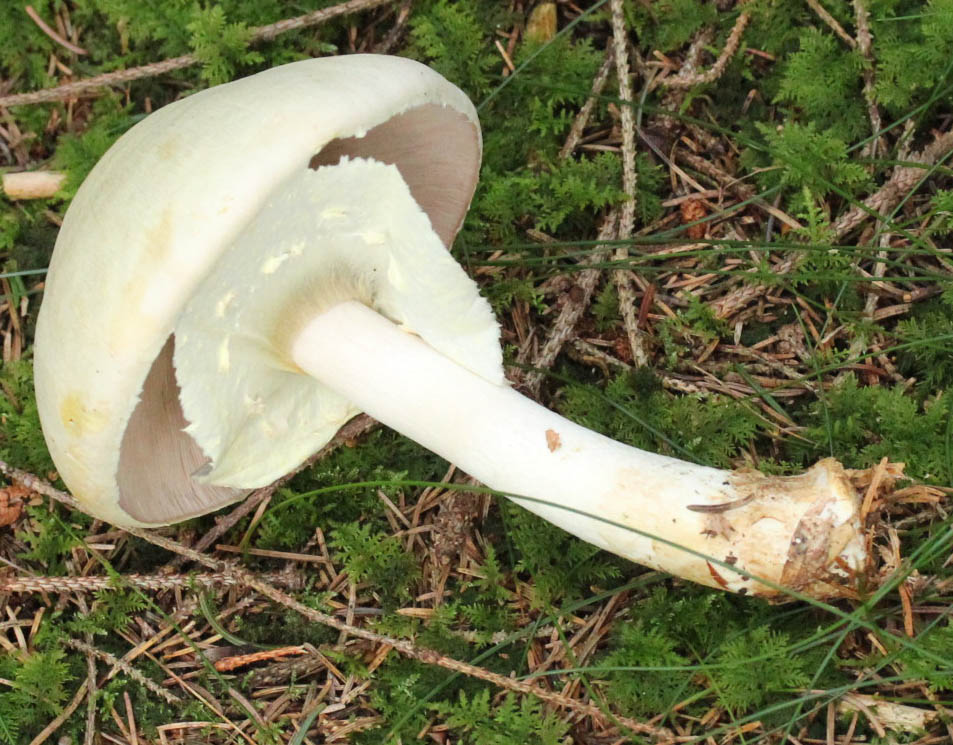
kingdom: Fungi
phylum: Basidiomycota
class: Agaricomycetes
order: Agaricales
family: Agaricaceae
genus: Agaricus
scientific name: Agaricus sylvicola
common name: gulhvid champignon
